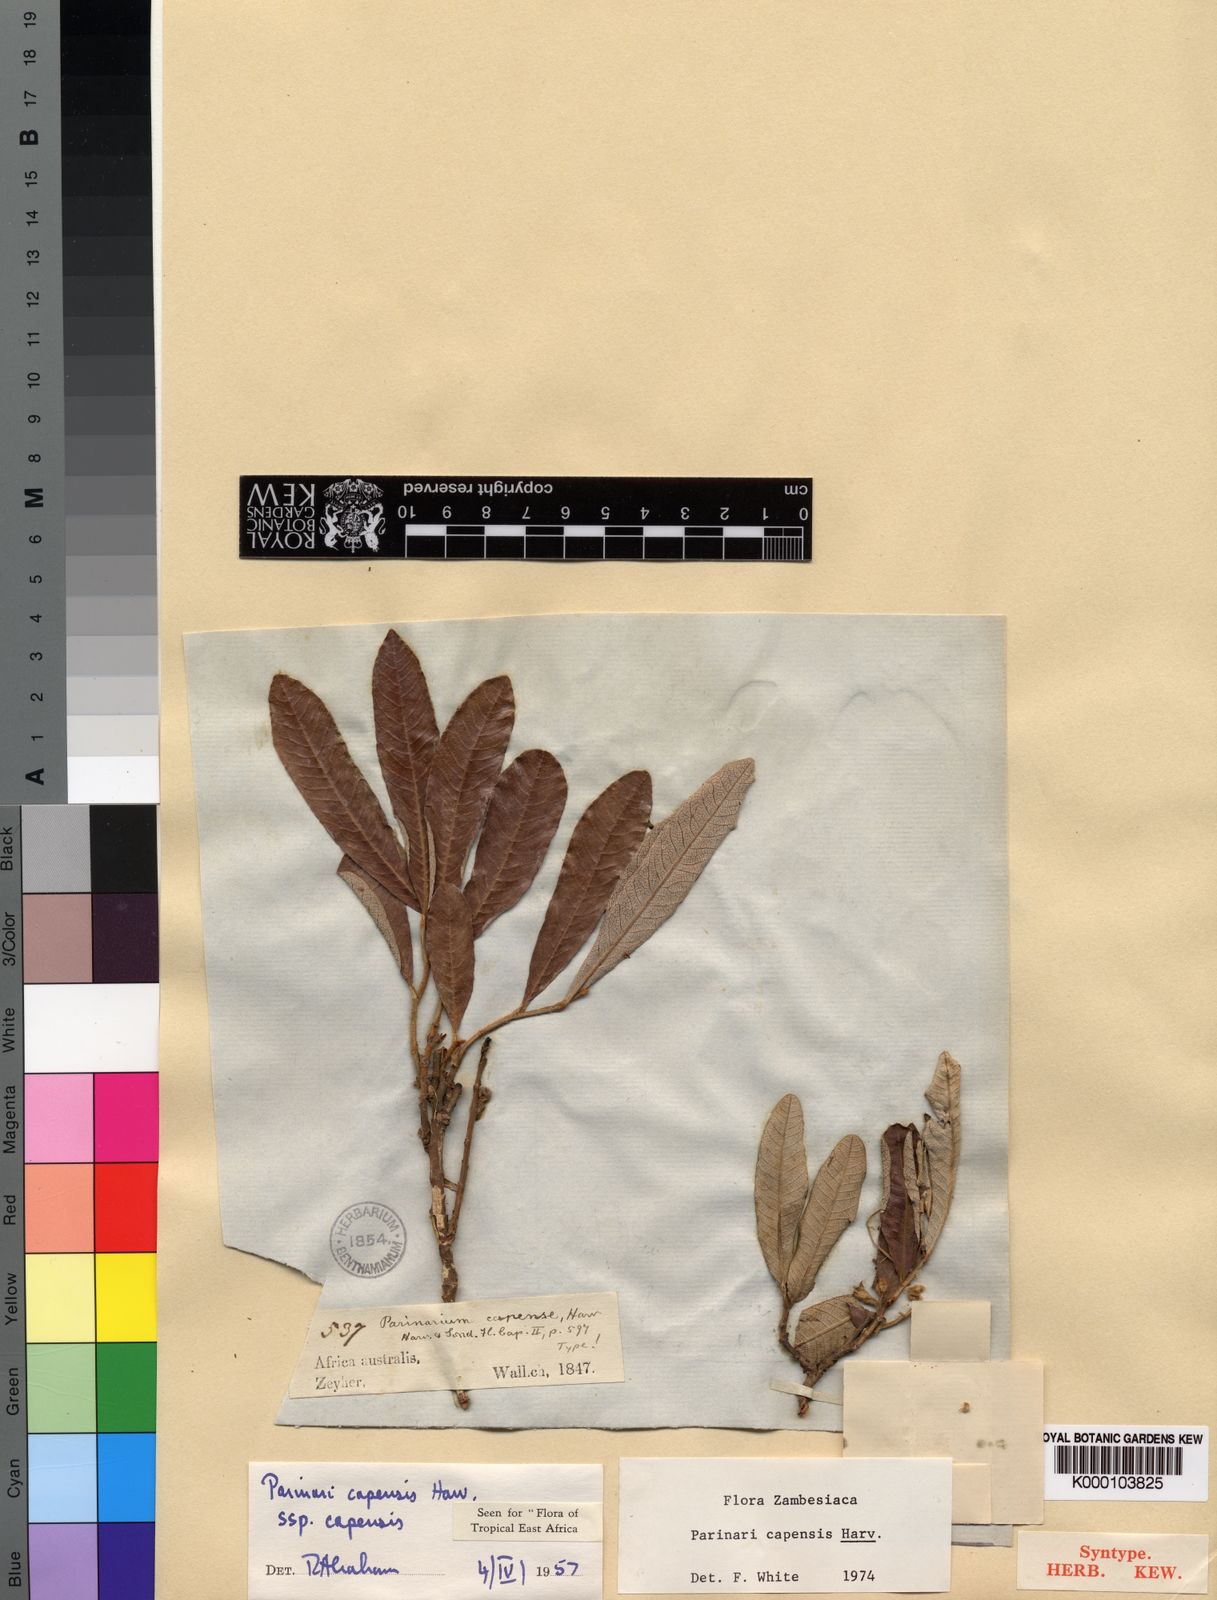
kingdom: Plantae
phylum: Tracheophyta
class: Magnoliopsida
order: Malpighiales
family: Chrysobalanaceae
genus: Parinari
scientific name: Parinari capensis
